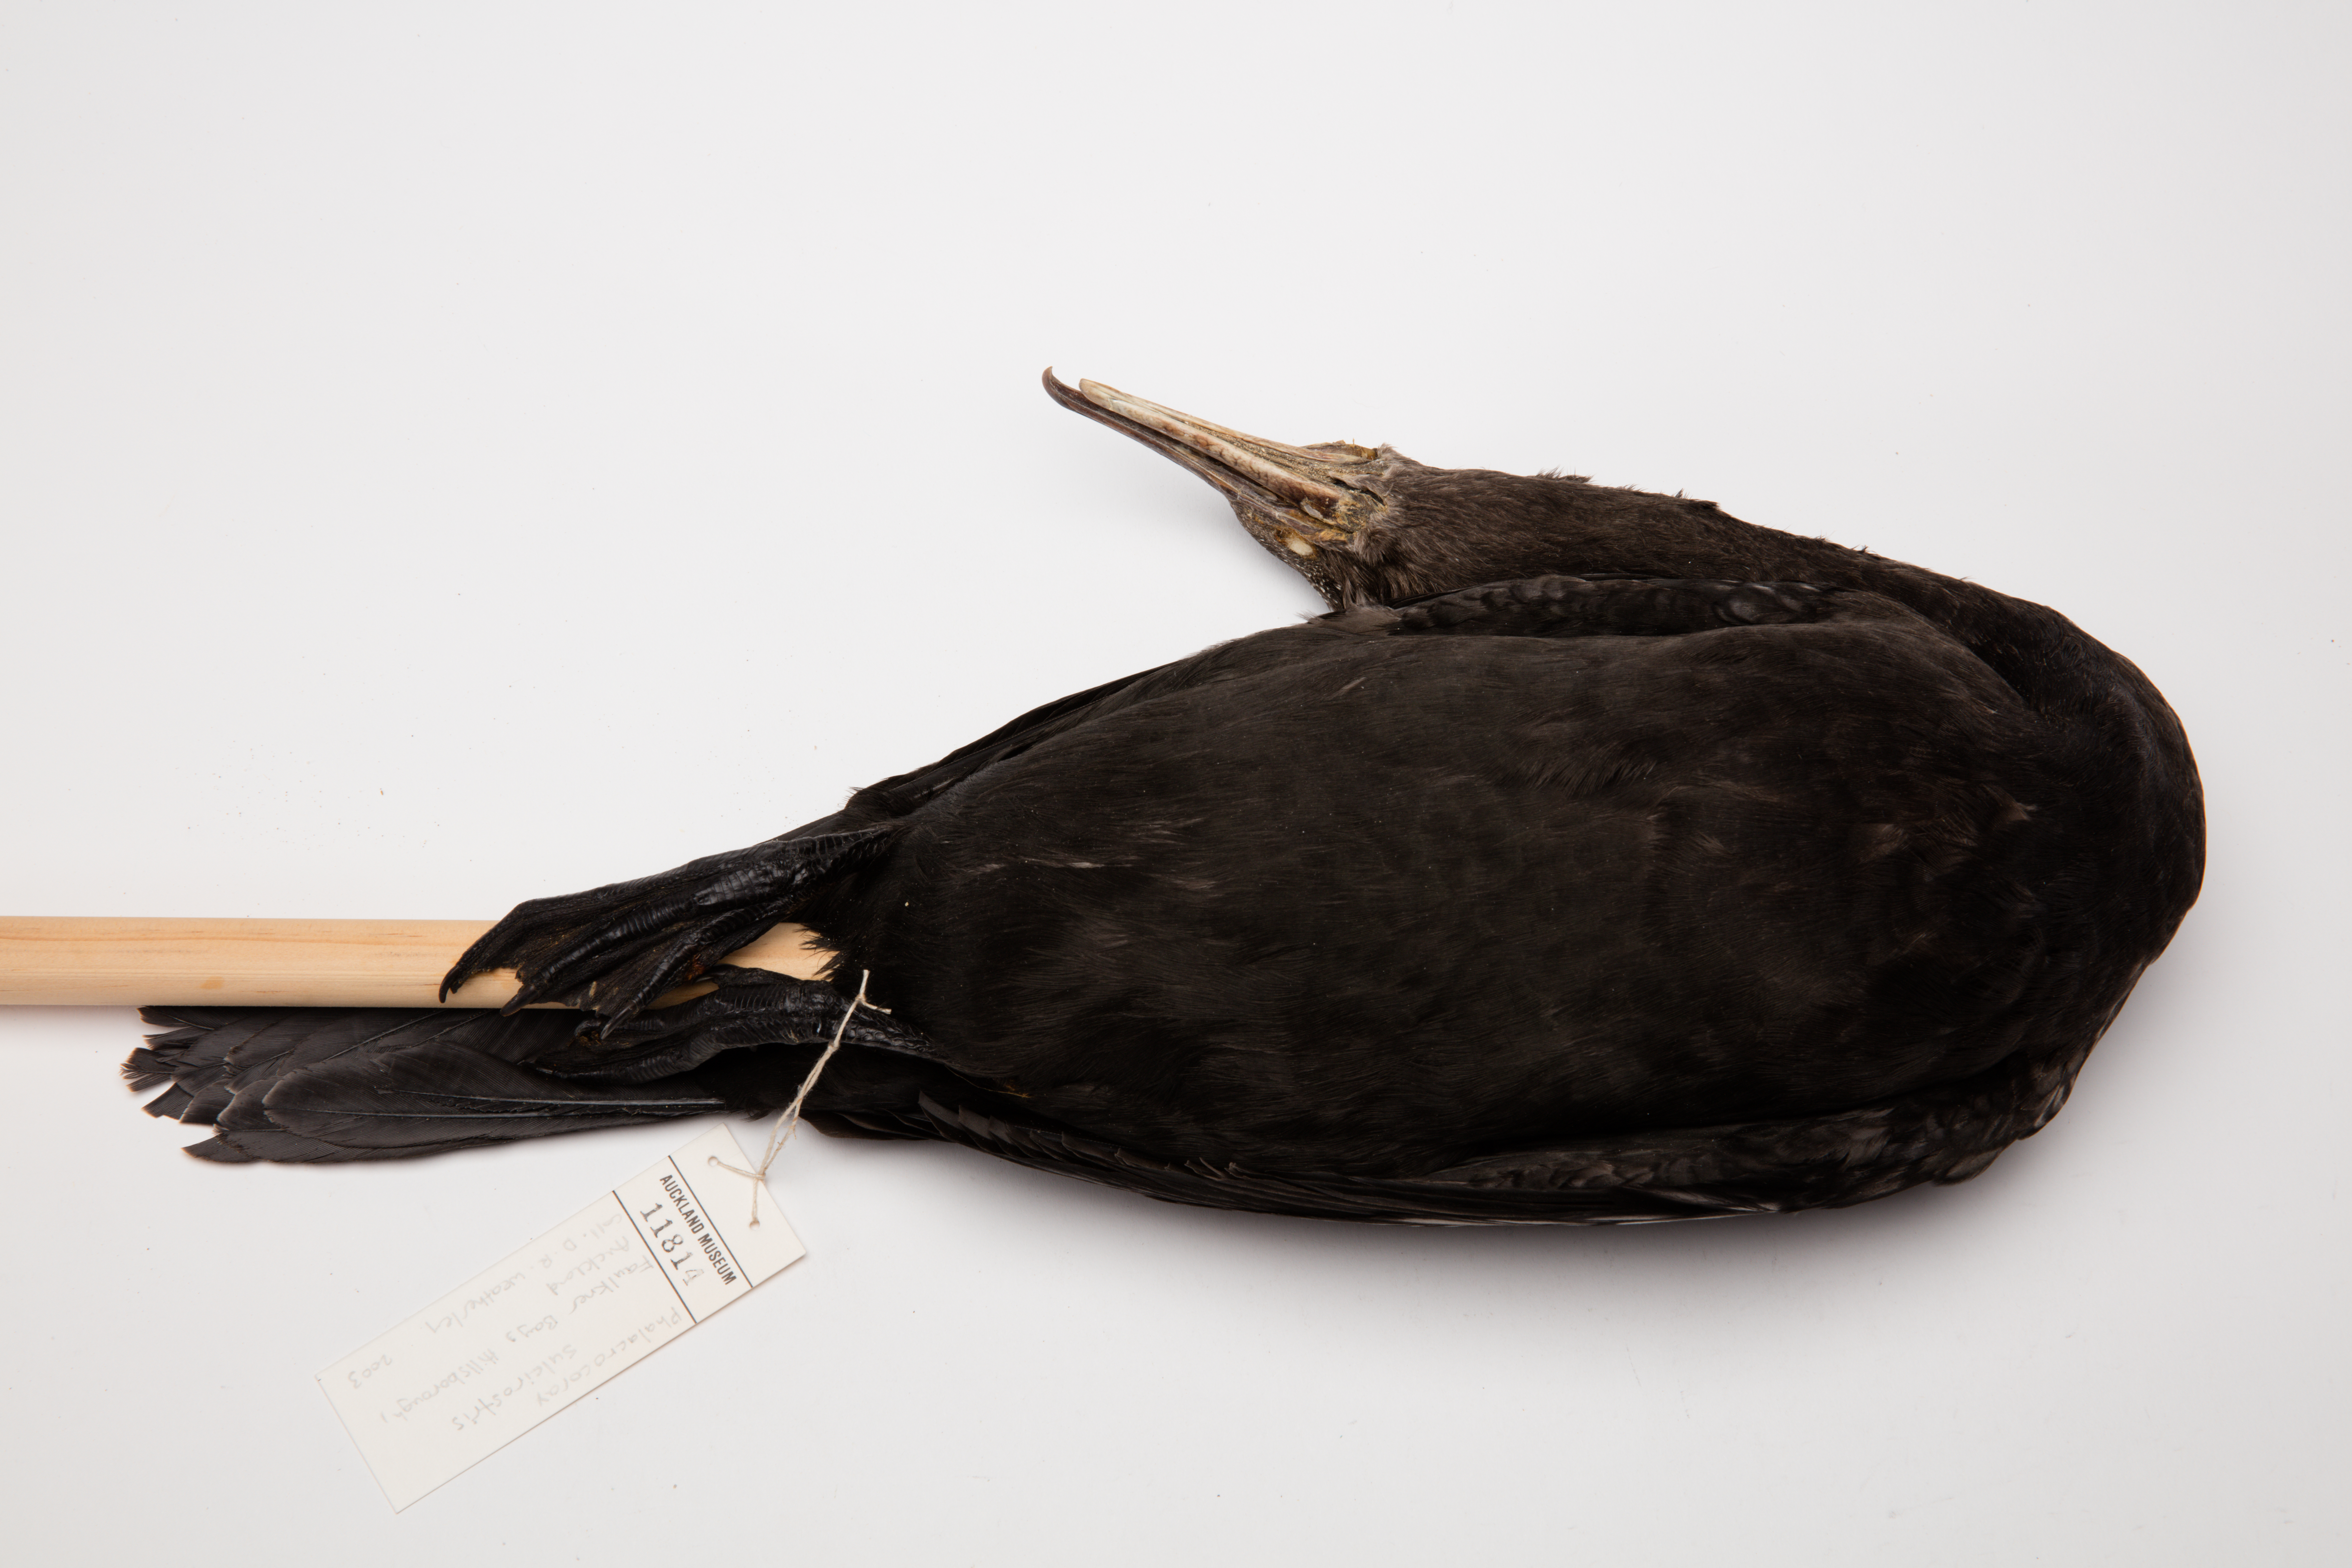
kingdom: Animalia
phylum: Chordata
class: Aves
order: Suliformes
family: Phalacrocoracidae
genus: Phalacrocorax
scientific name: Phalacrocorax sulcirostris
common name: Little black cormorant
